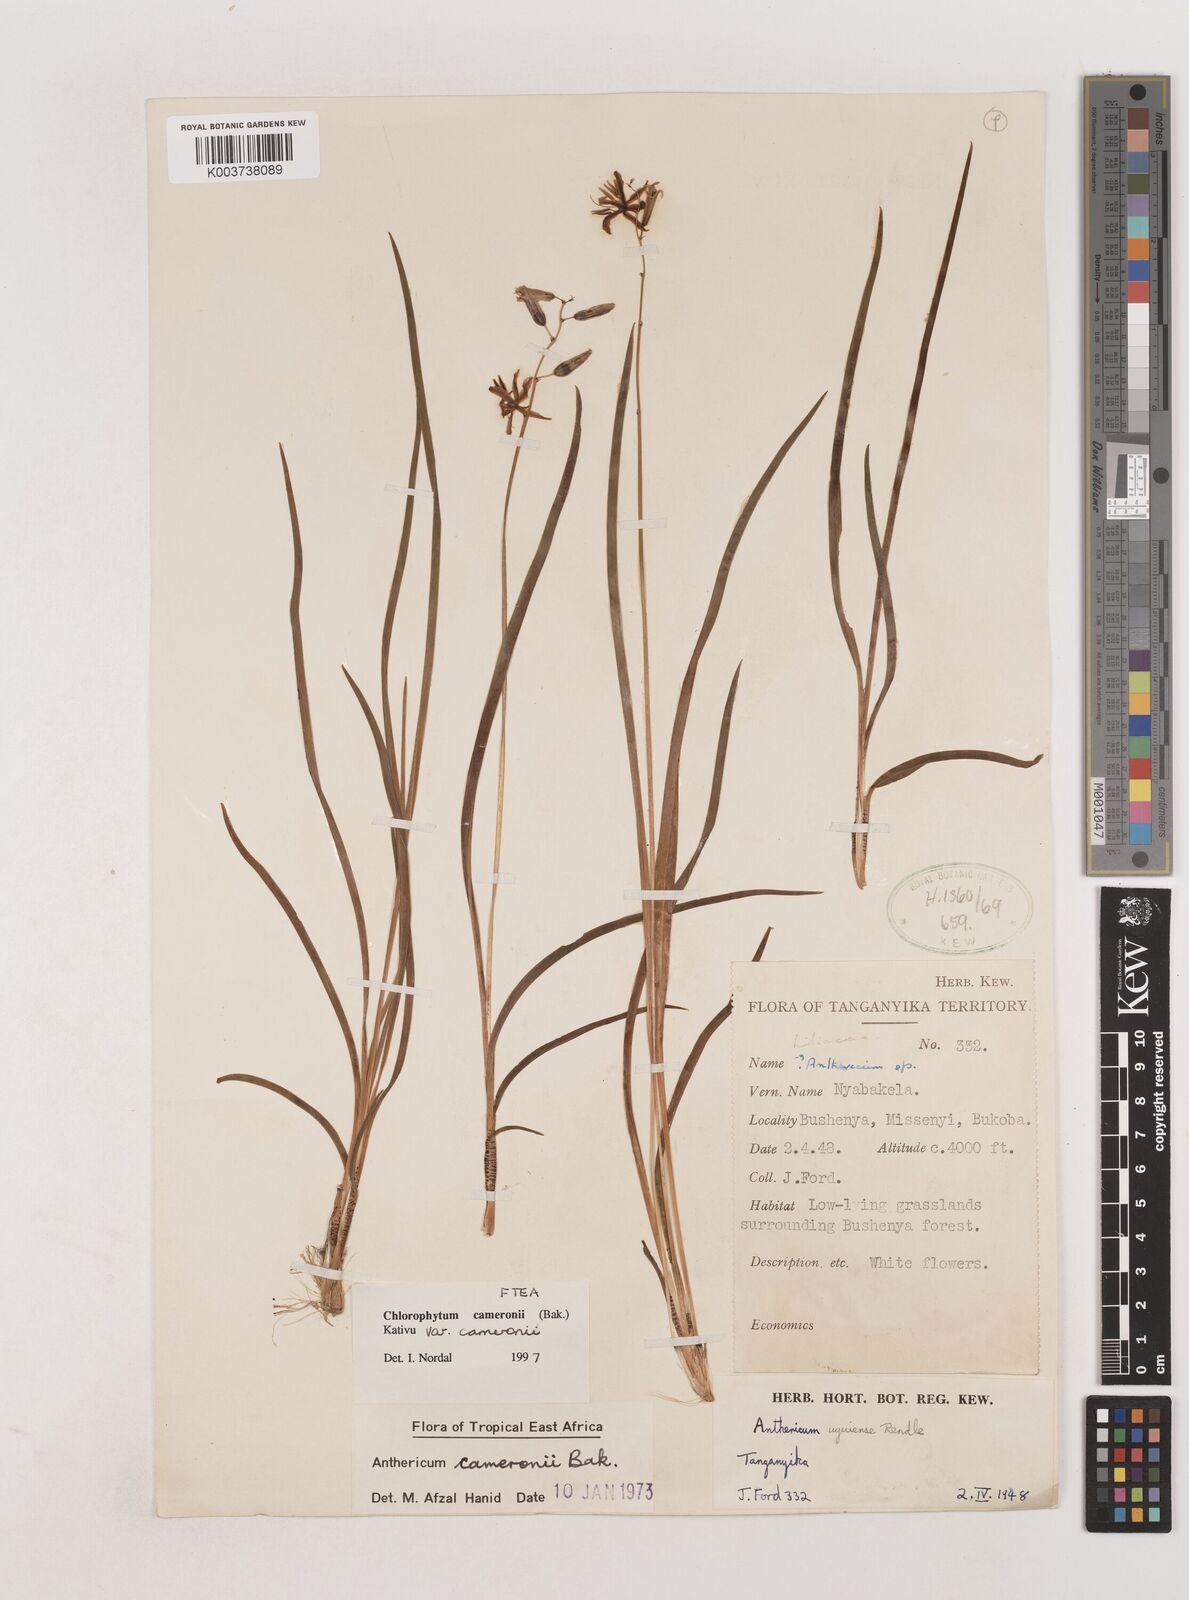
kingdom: Plantae
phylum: Tracheophyta
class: Liliopsida
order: Asparagales
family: Asparagaceae
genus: Chlorophytum
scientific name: Chlorophytum cameronii
